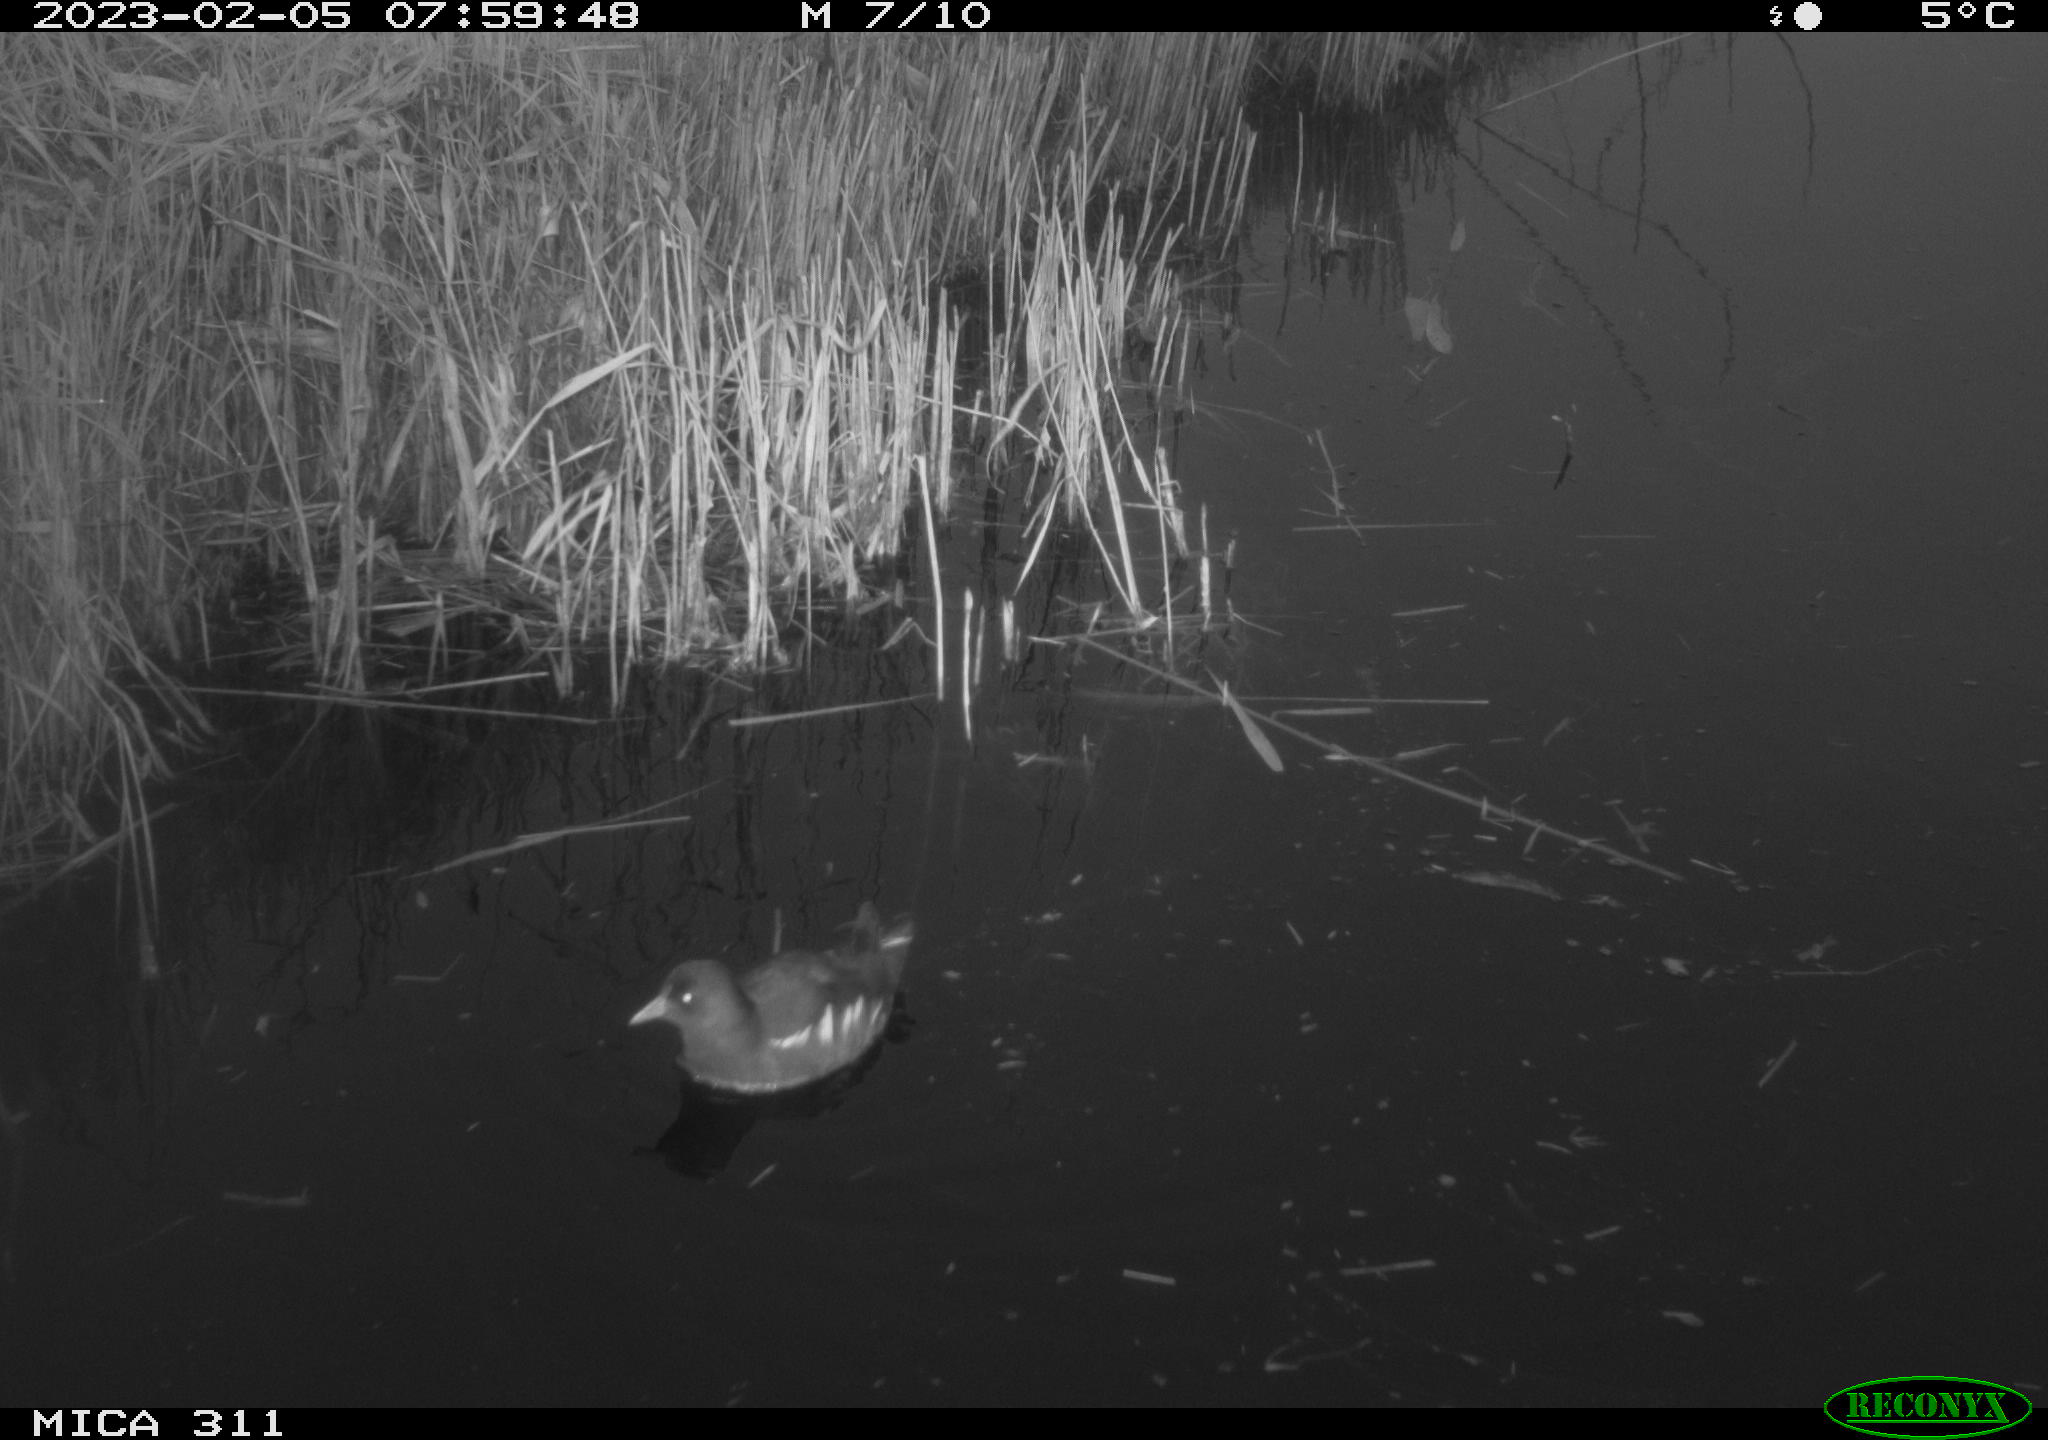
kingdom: Animalia
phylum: Chordata
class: Aves
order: Gruiformes
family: Rallidae
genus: Gallinula
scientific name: Gallinula chloropus
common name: Common moorhen
